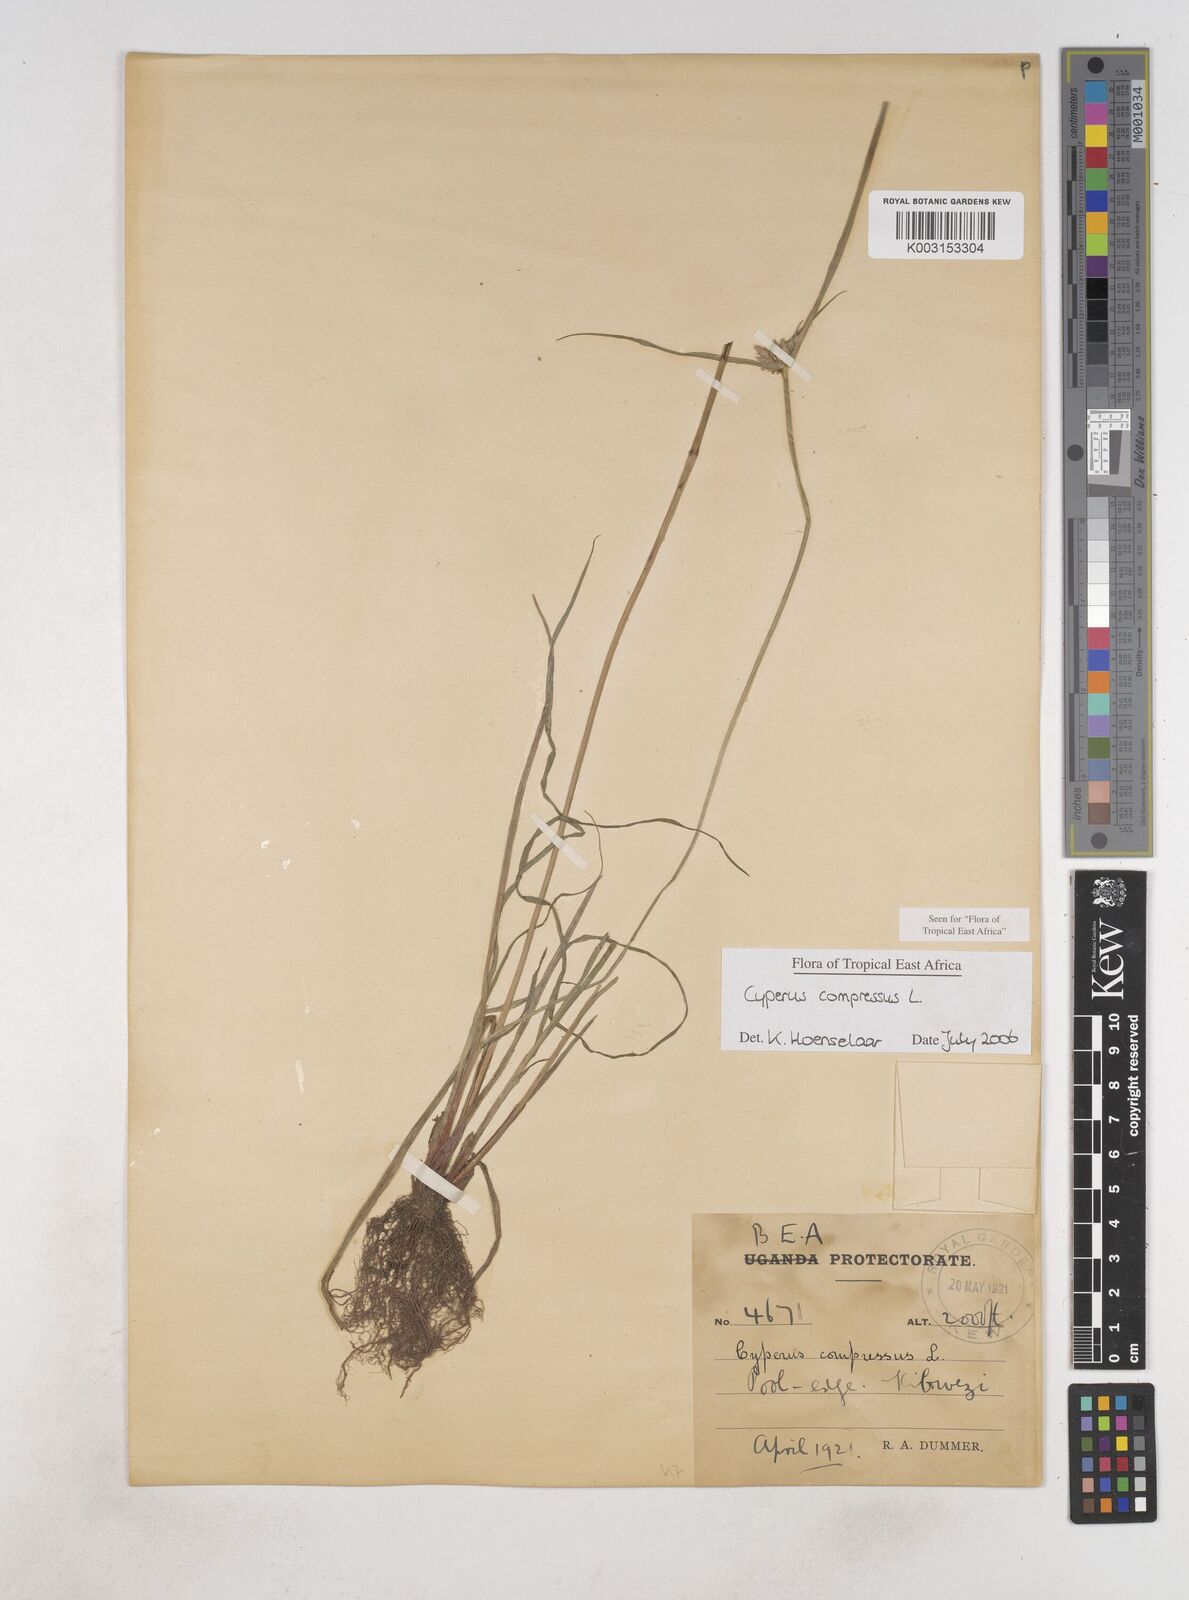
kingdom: Plantae
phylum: Tracheophyta
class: Liliopsida
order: Poales
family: Cyperaceae
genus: Cyperus
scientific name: Cyperus compressus
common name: Poorland flatsedge
